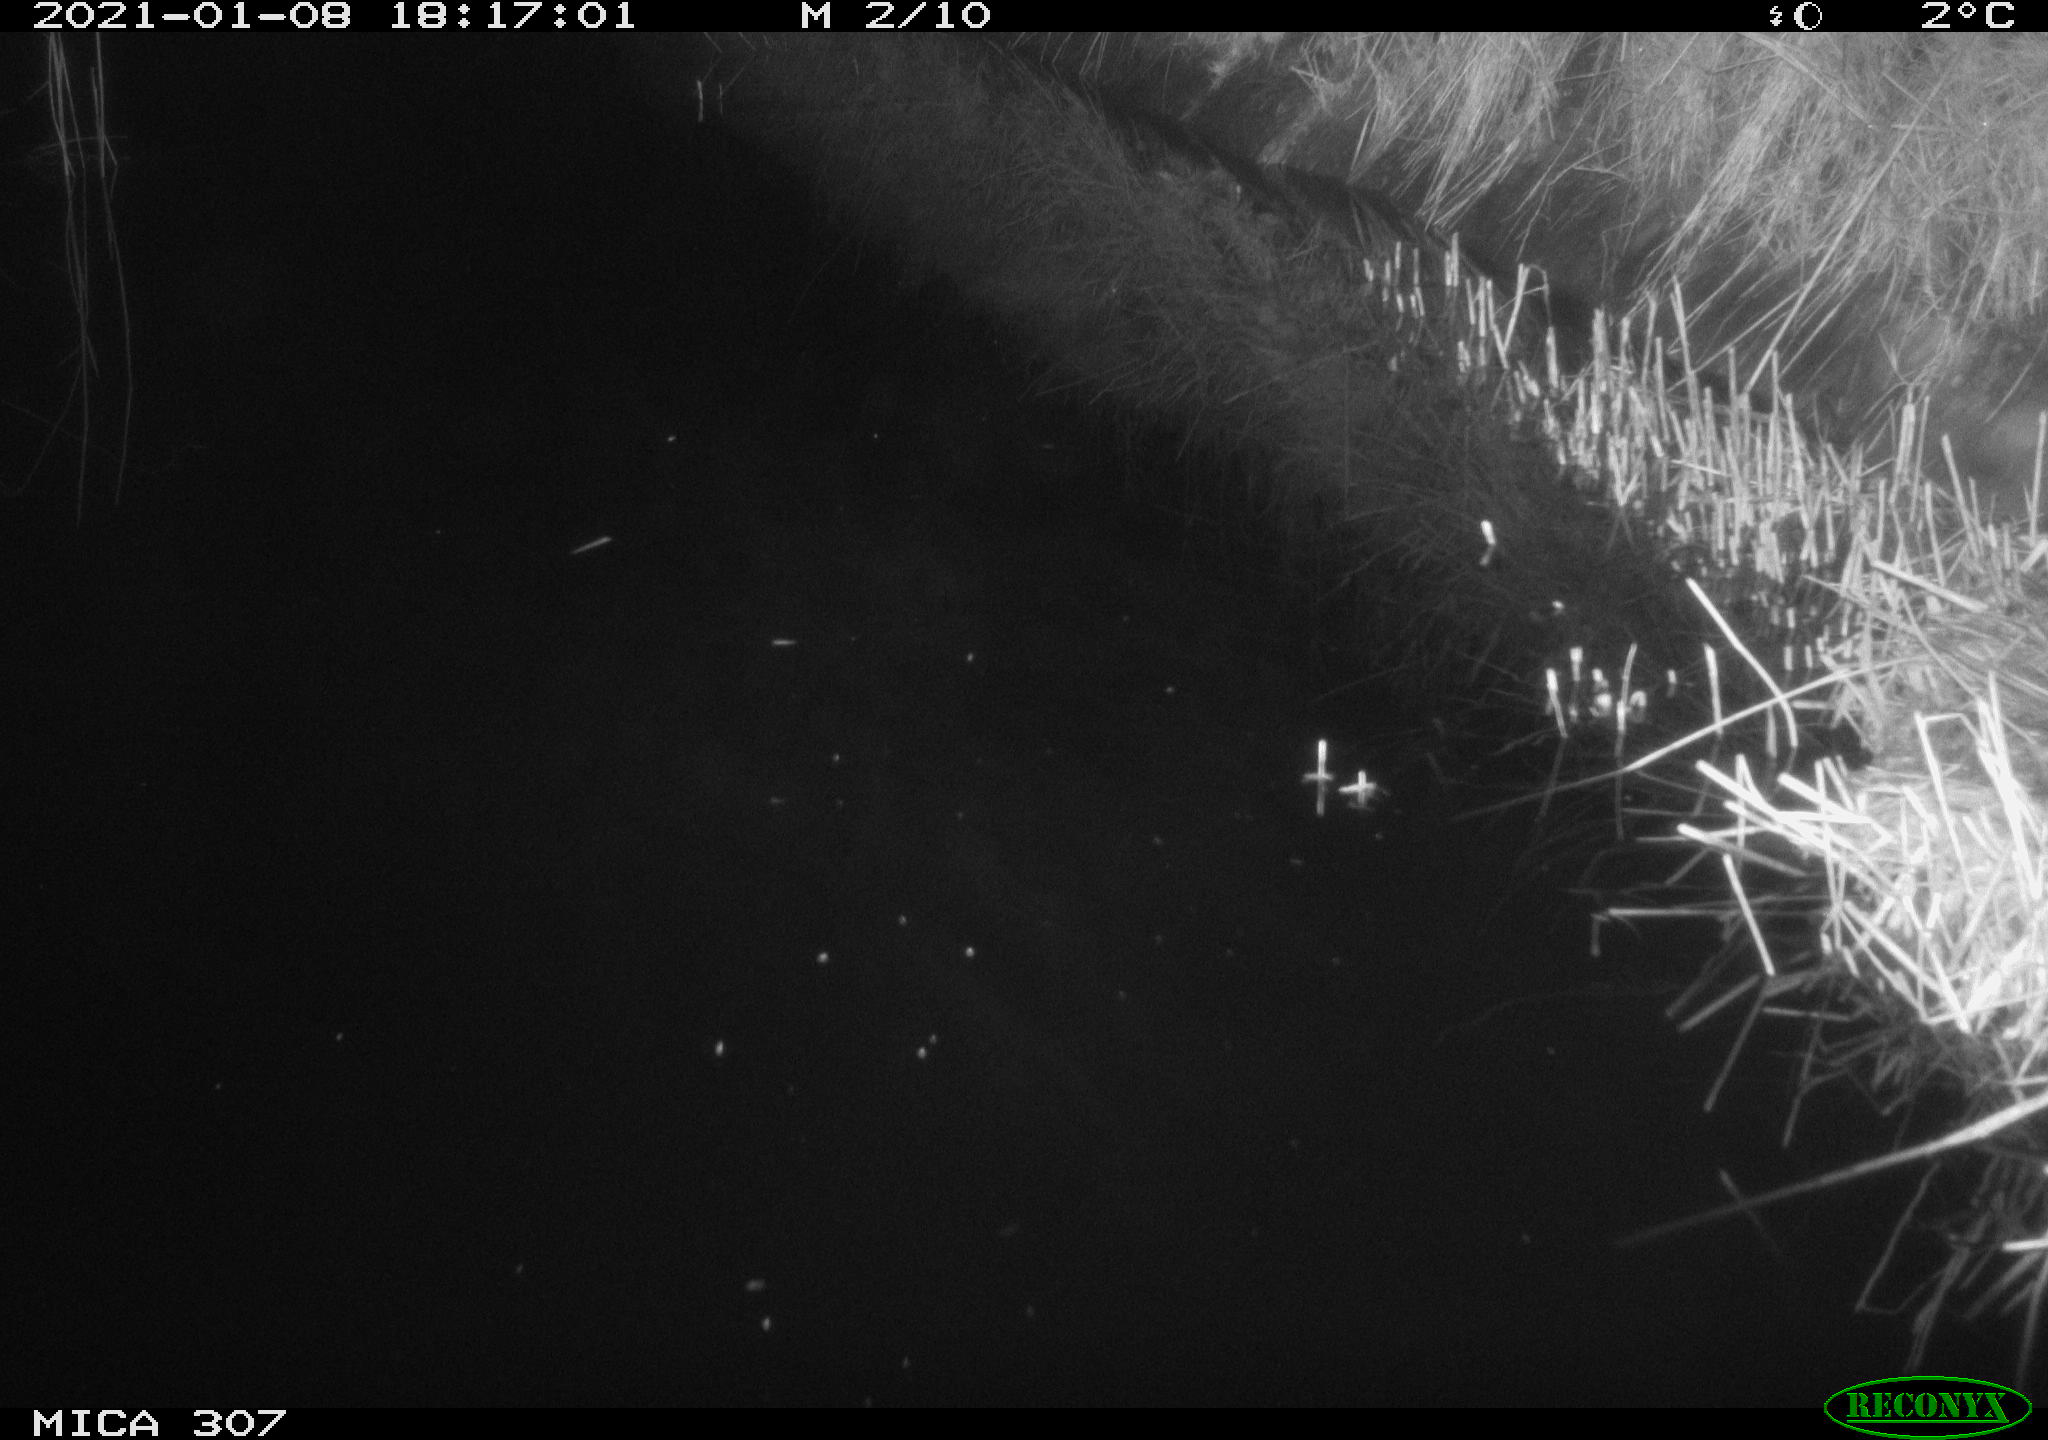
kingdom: Animalia
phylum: Chordata
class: Mammalia
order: Rodentia
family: Muridae
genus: Rattus
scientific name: Rattus norvegicus
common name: Brown rat
